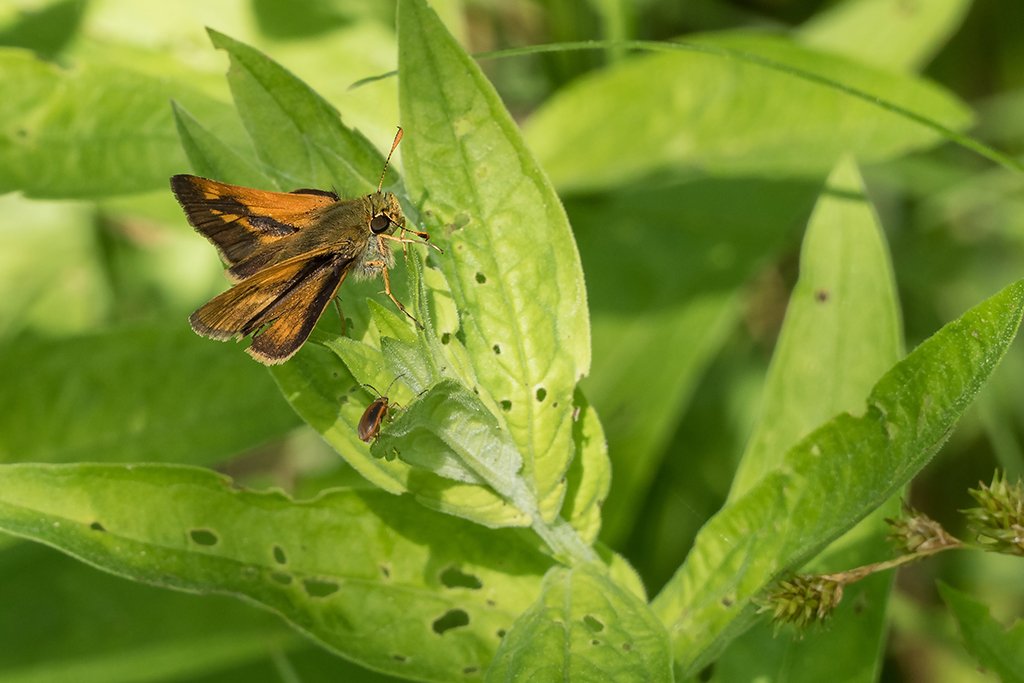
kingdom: Animalia
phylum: Arthropoda
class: Insecta
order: Lepidoptera
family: Hesperiidae
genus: Polites
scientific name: Polites
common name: Long Dash Skipper
